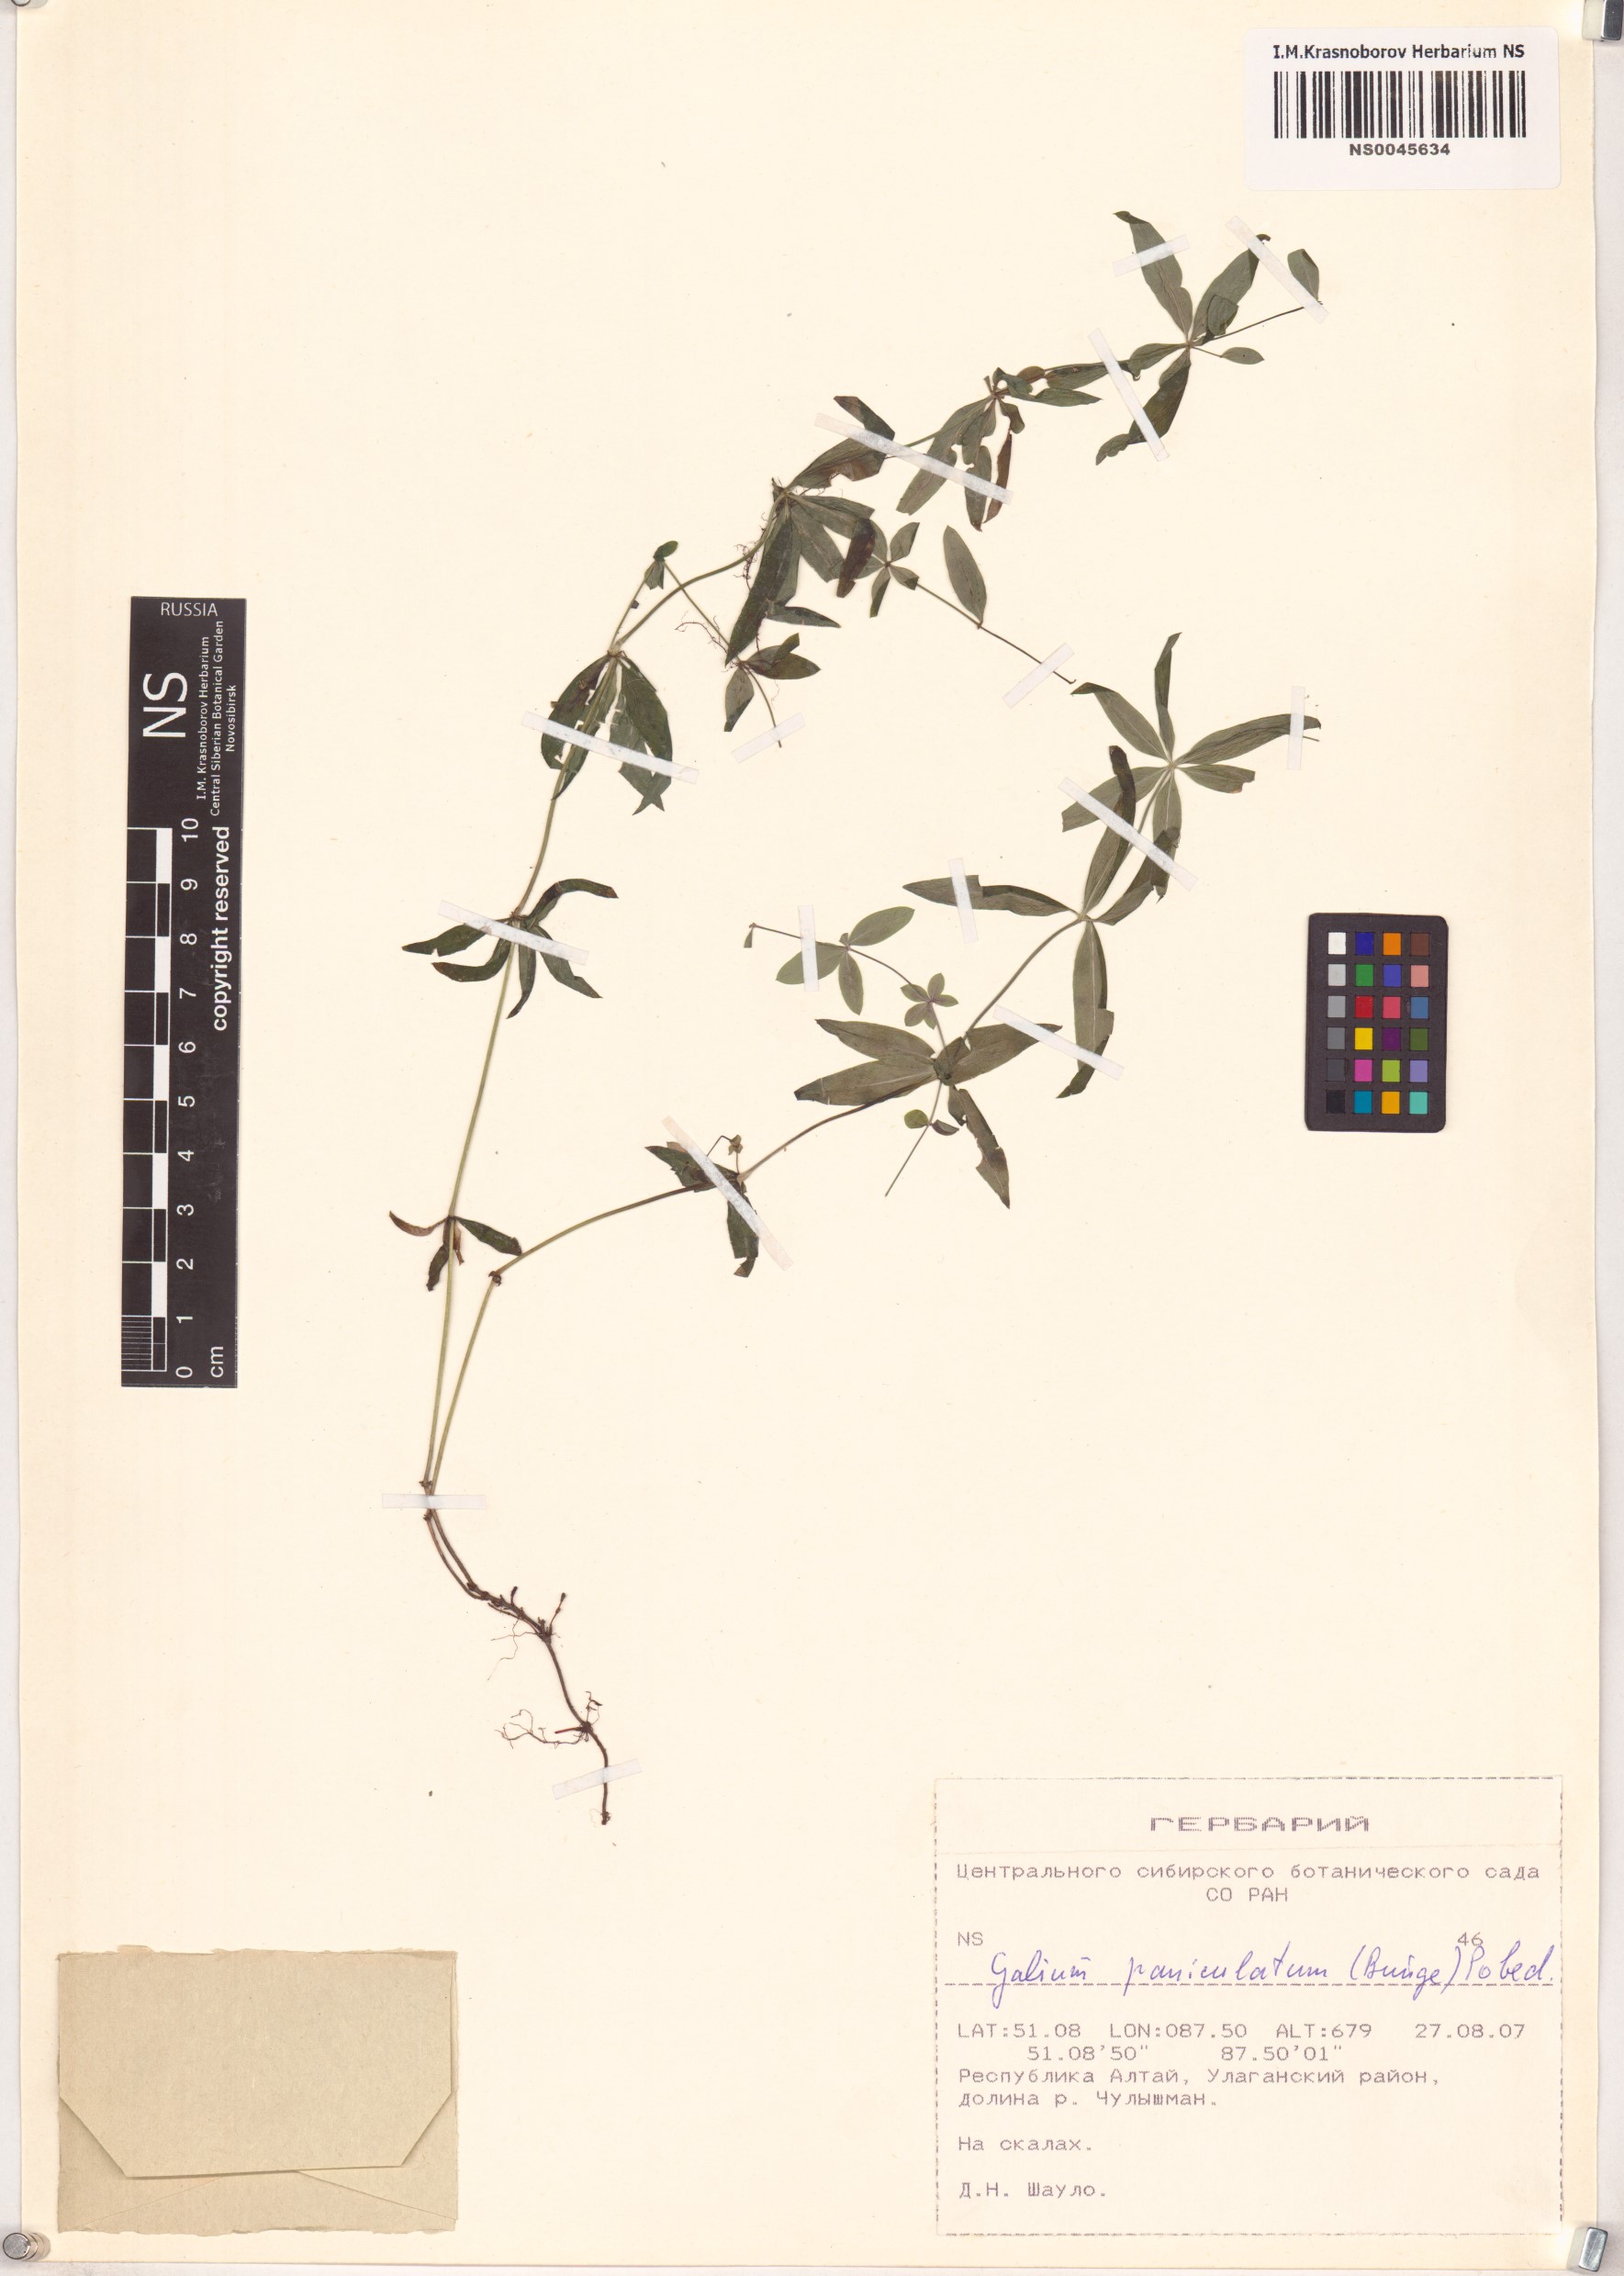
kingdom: Plantae
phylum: Tracheophyta
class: Magnoliopsida
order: Gentianales
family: Rubiaceae
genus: Galium
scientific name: Galium paniculatum
